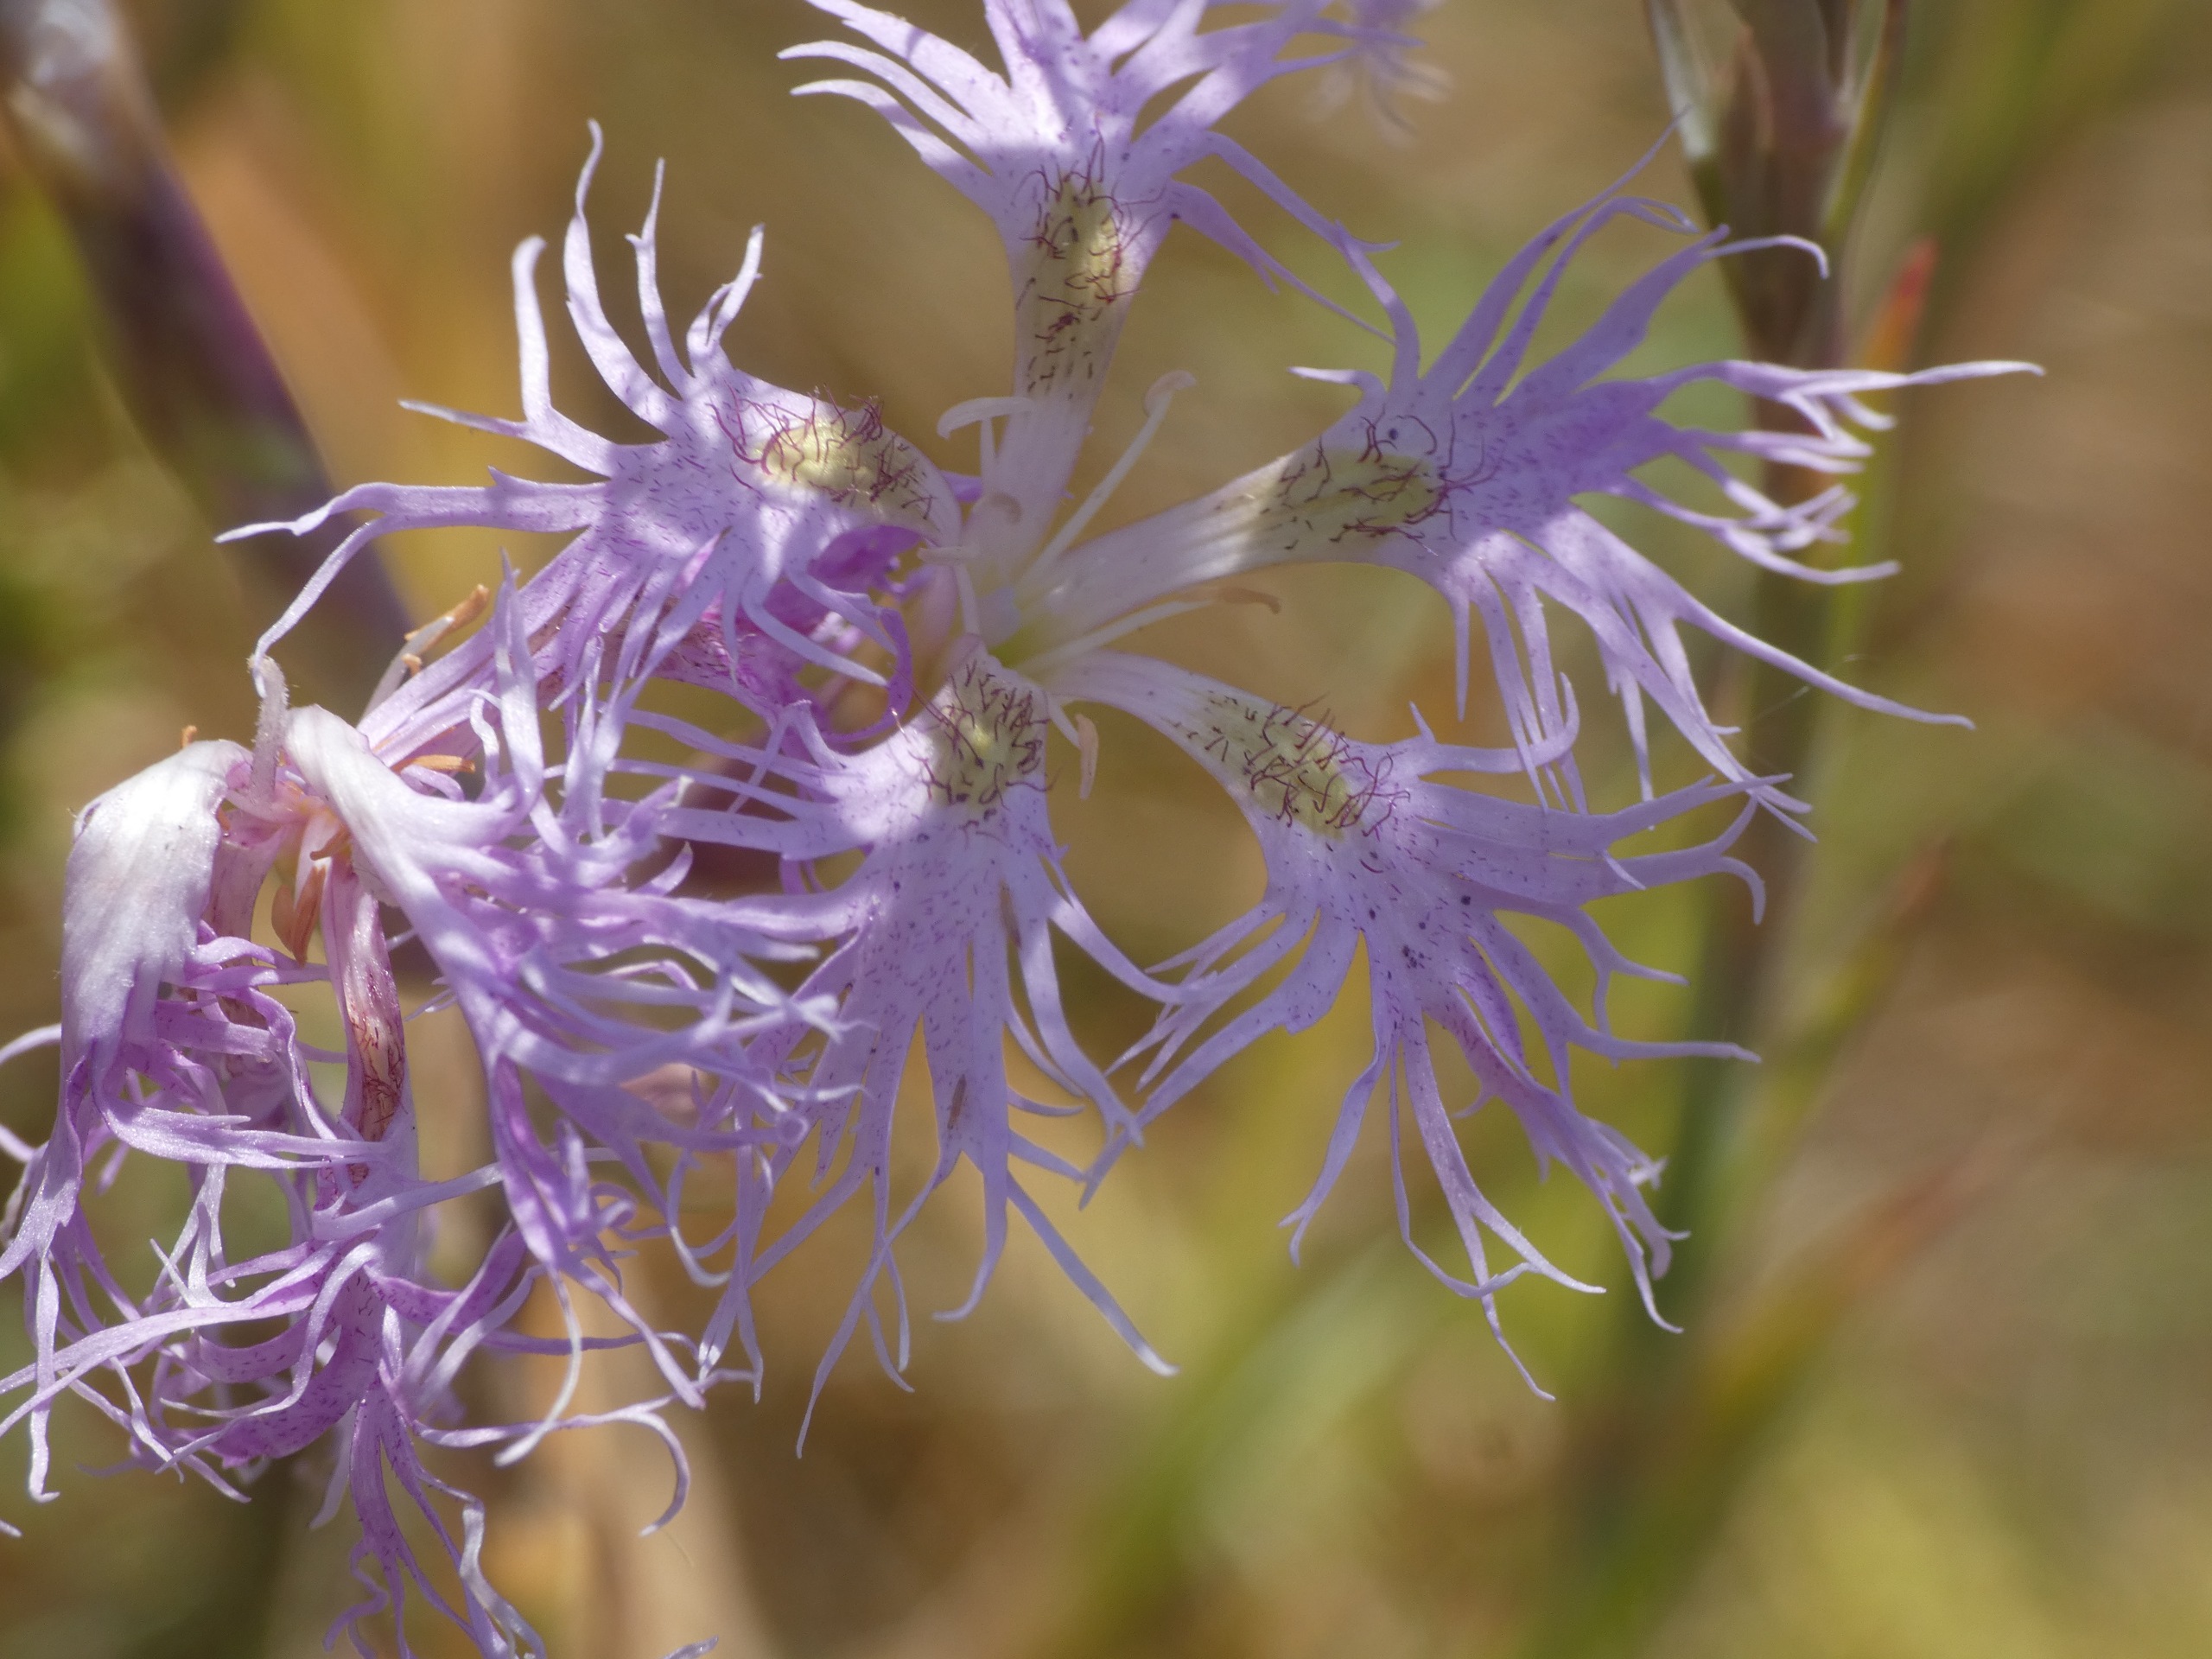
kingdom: Plantae
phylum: Tracheophyta
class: Magnoliopsida
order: Caryophyllales
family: Caryophyllaceae
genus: Dianthus
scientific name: Dianthus superbus
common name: Strand-nellike
